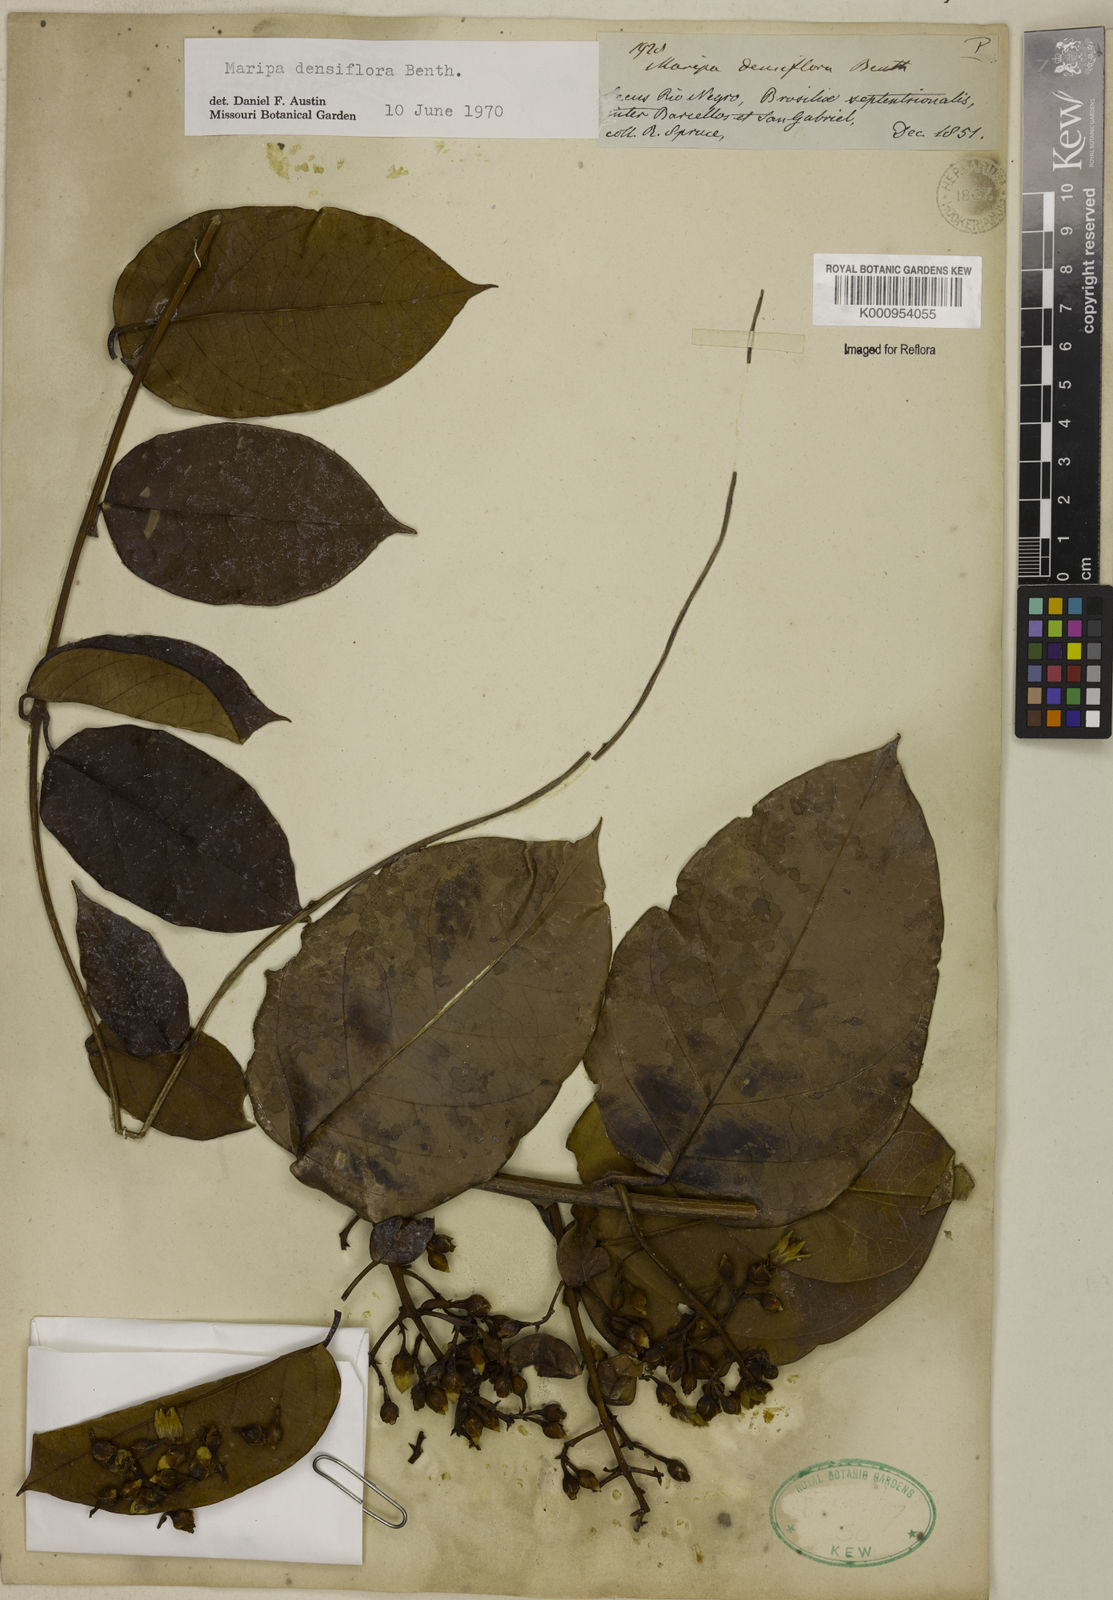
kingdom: Plantae
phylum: Tracheophyta
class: Magnoliopsida
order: Solanales
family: Convolvulaceae
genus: Maripa
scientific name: Maripa densiflora
